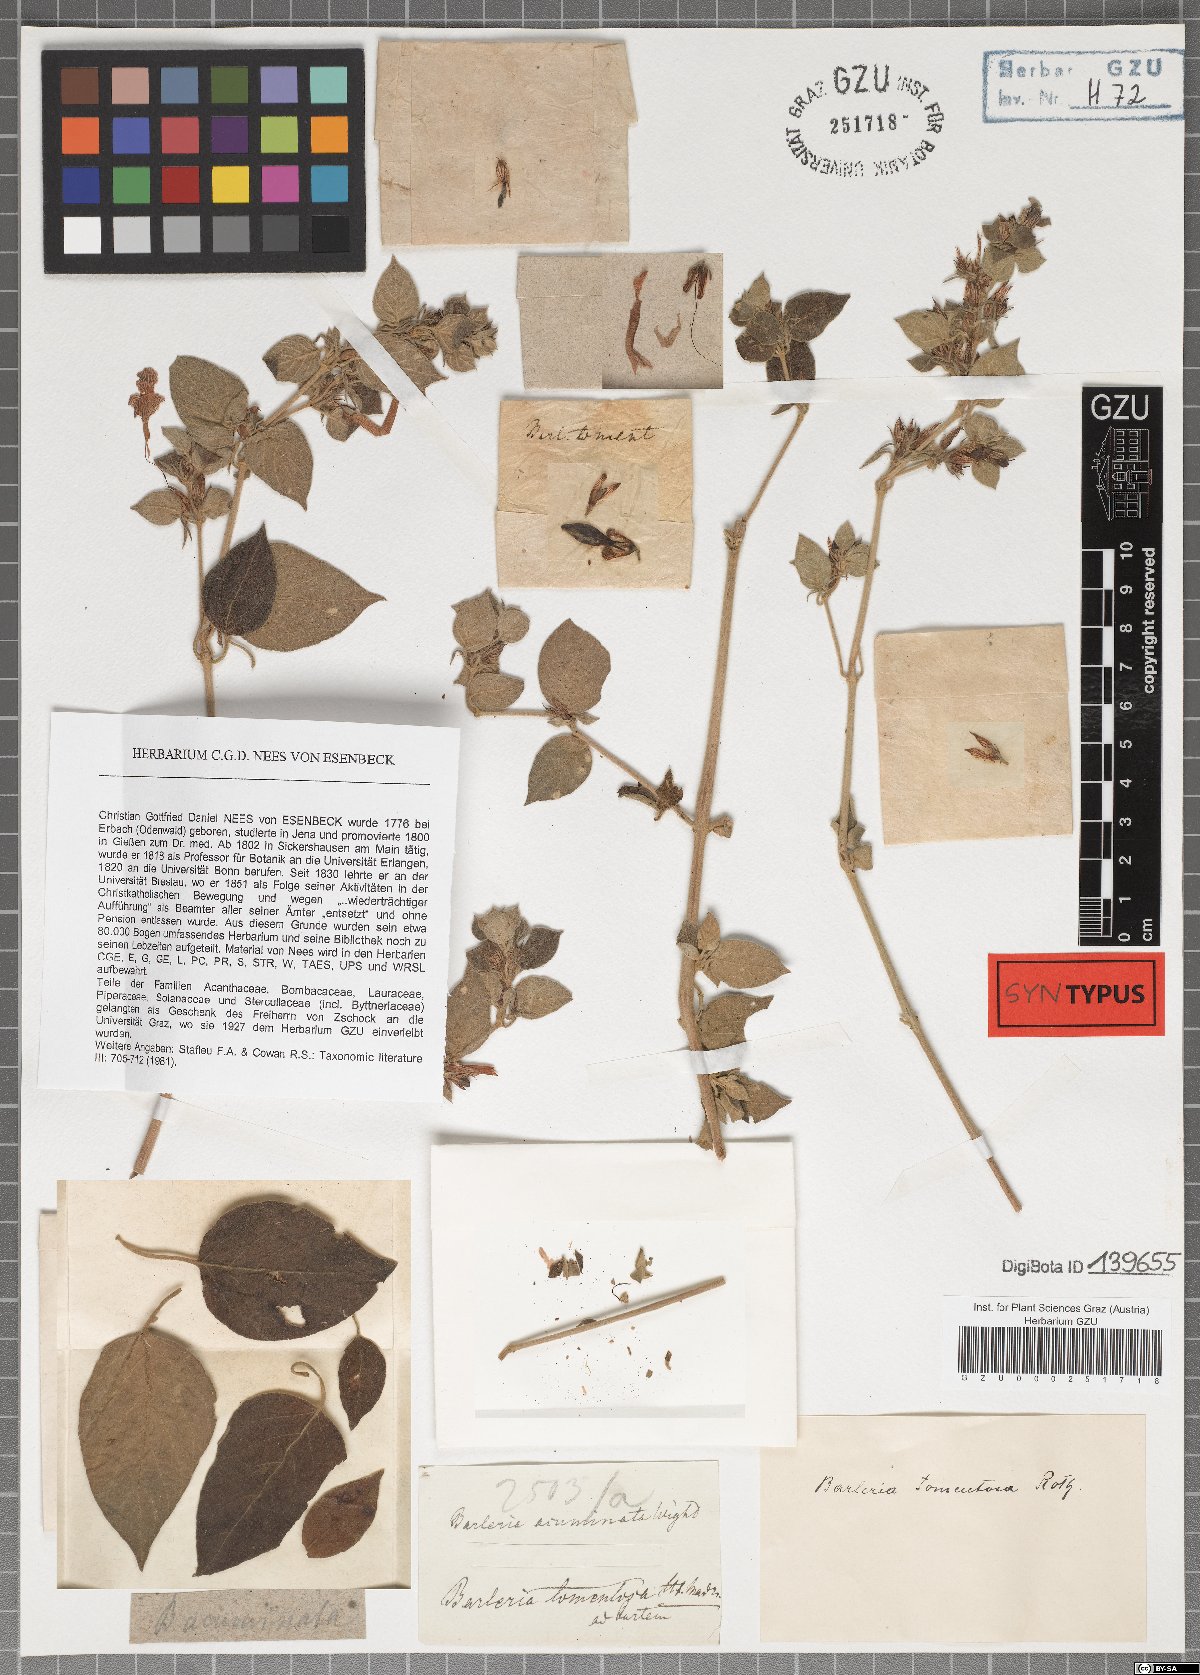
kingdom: Plantae
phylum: Tracheophyta
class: Magnoliopsida
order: Lamiales
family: Acanthaceae
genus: Barleria
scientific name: Barleria acuminata
